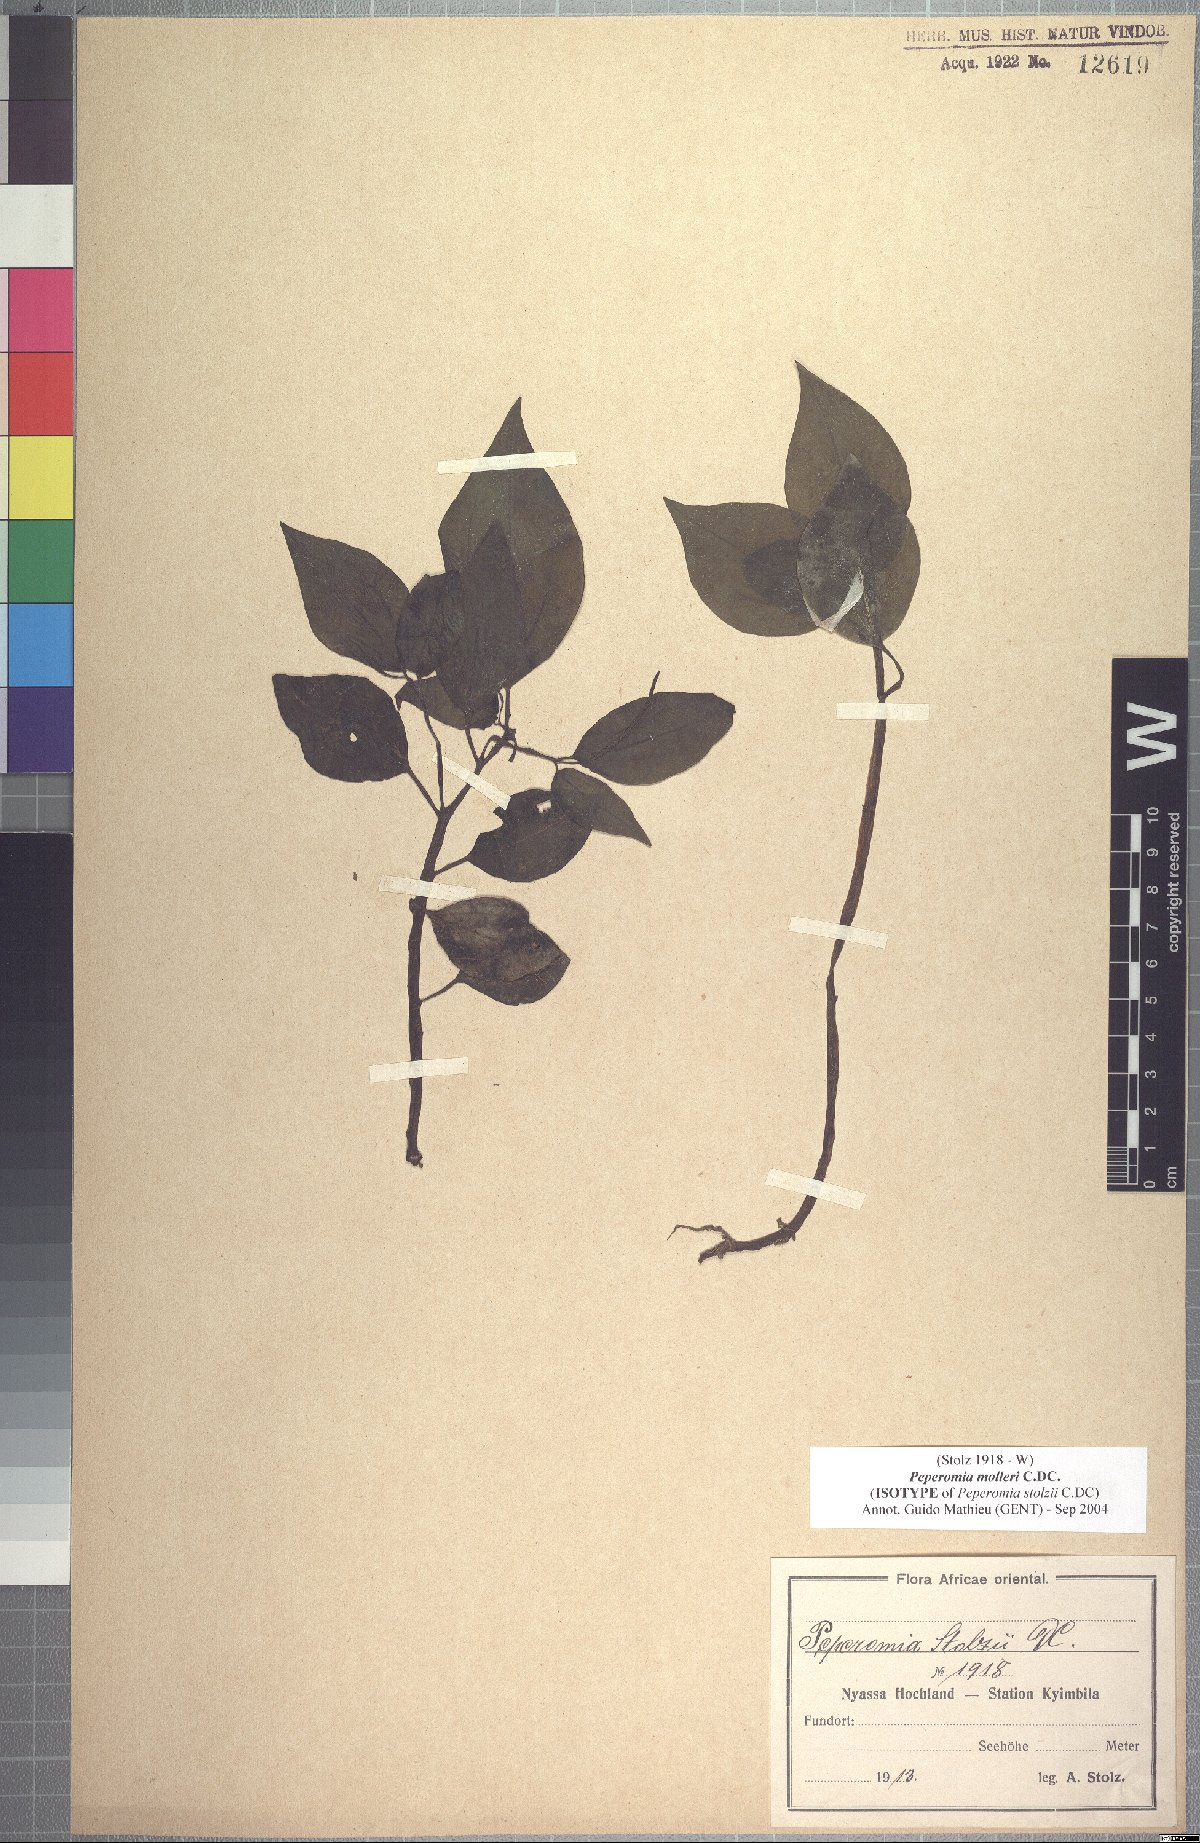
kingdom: Plantae
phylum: Tracheophyta
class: Magnoliopsida
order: Piperales
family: Piperaceae
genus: Peperomia
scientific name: Peperomia molleri
